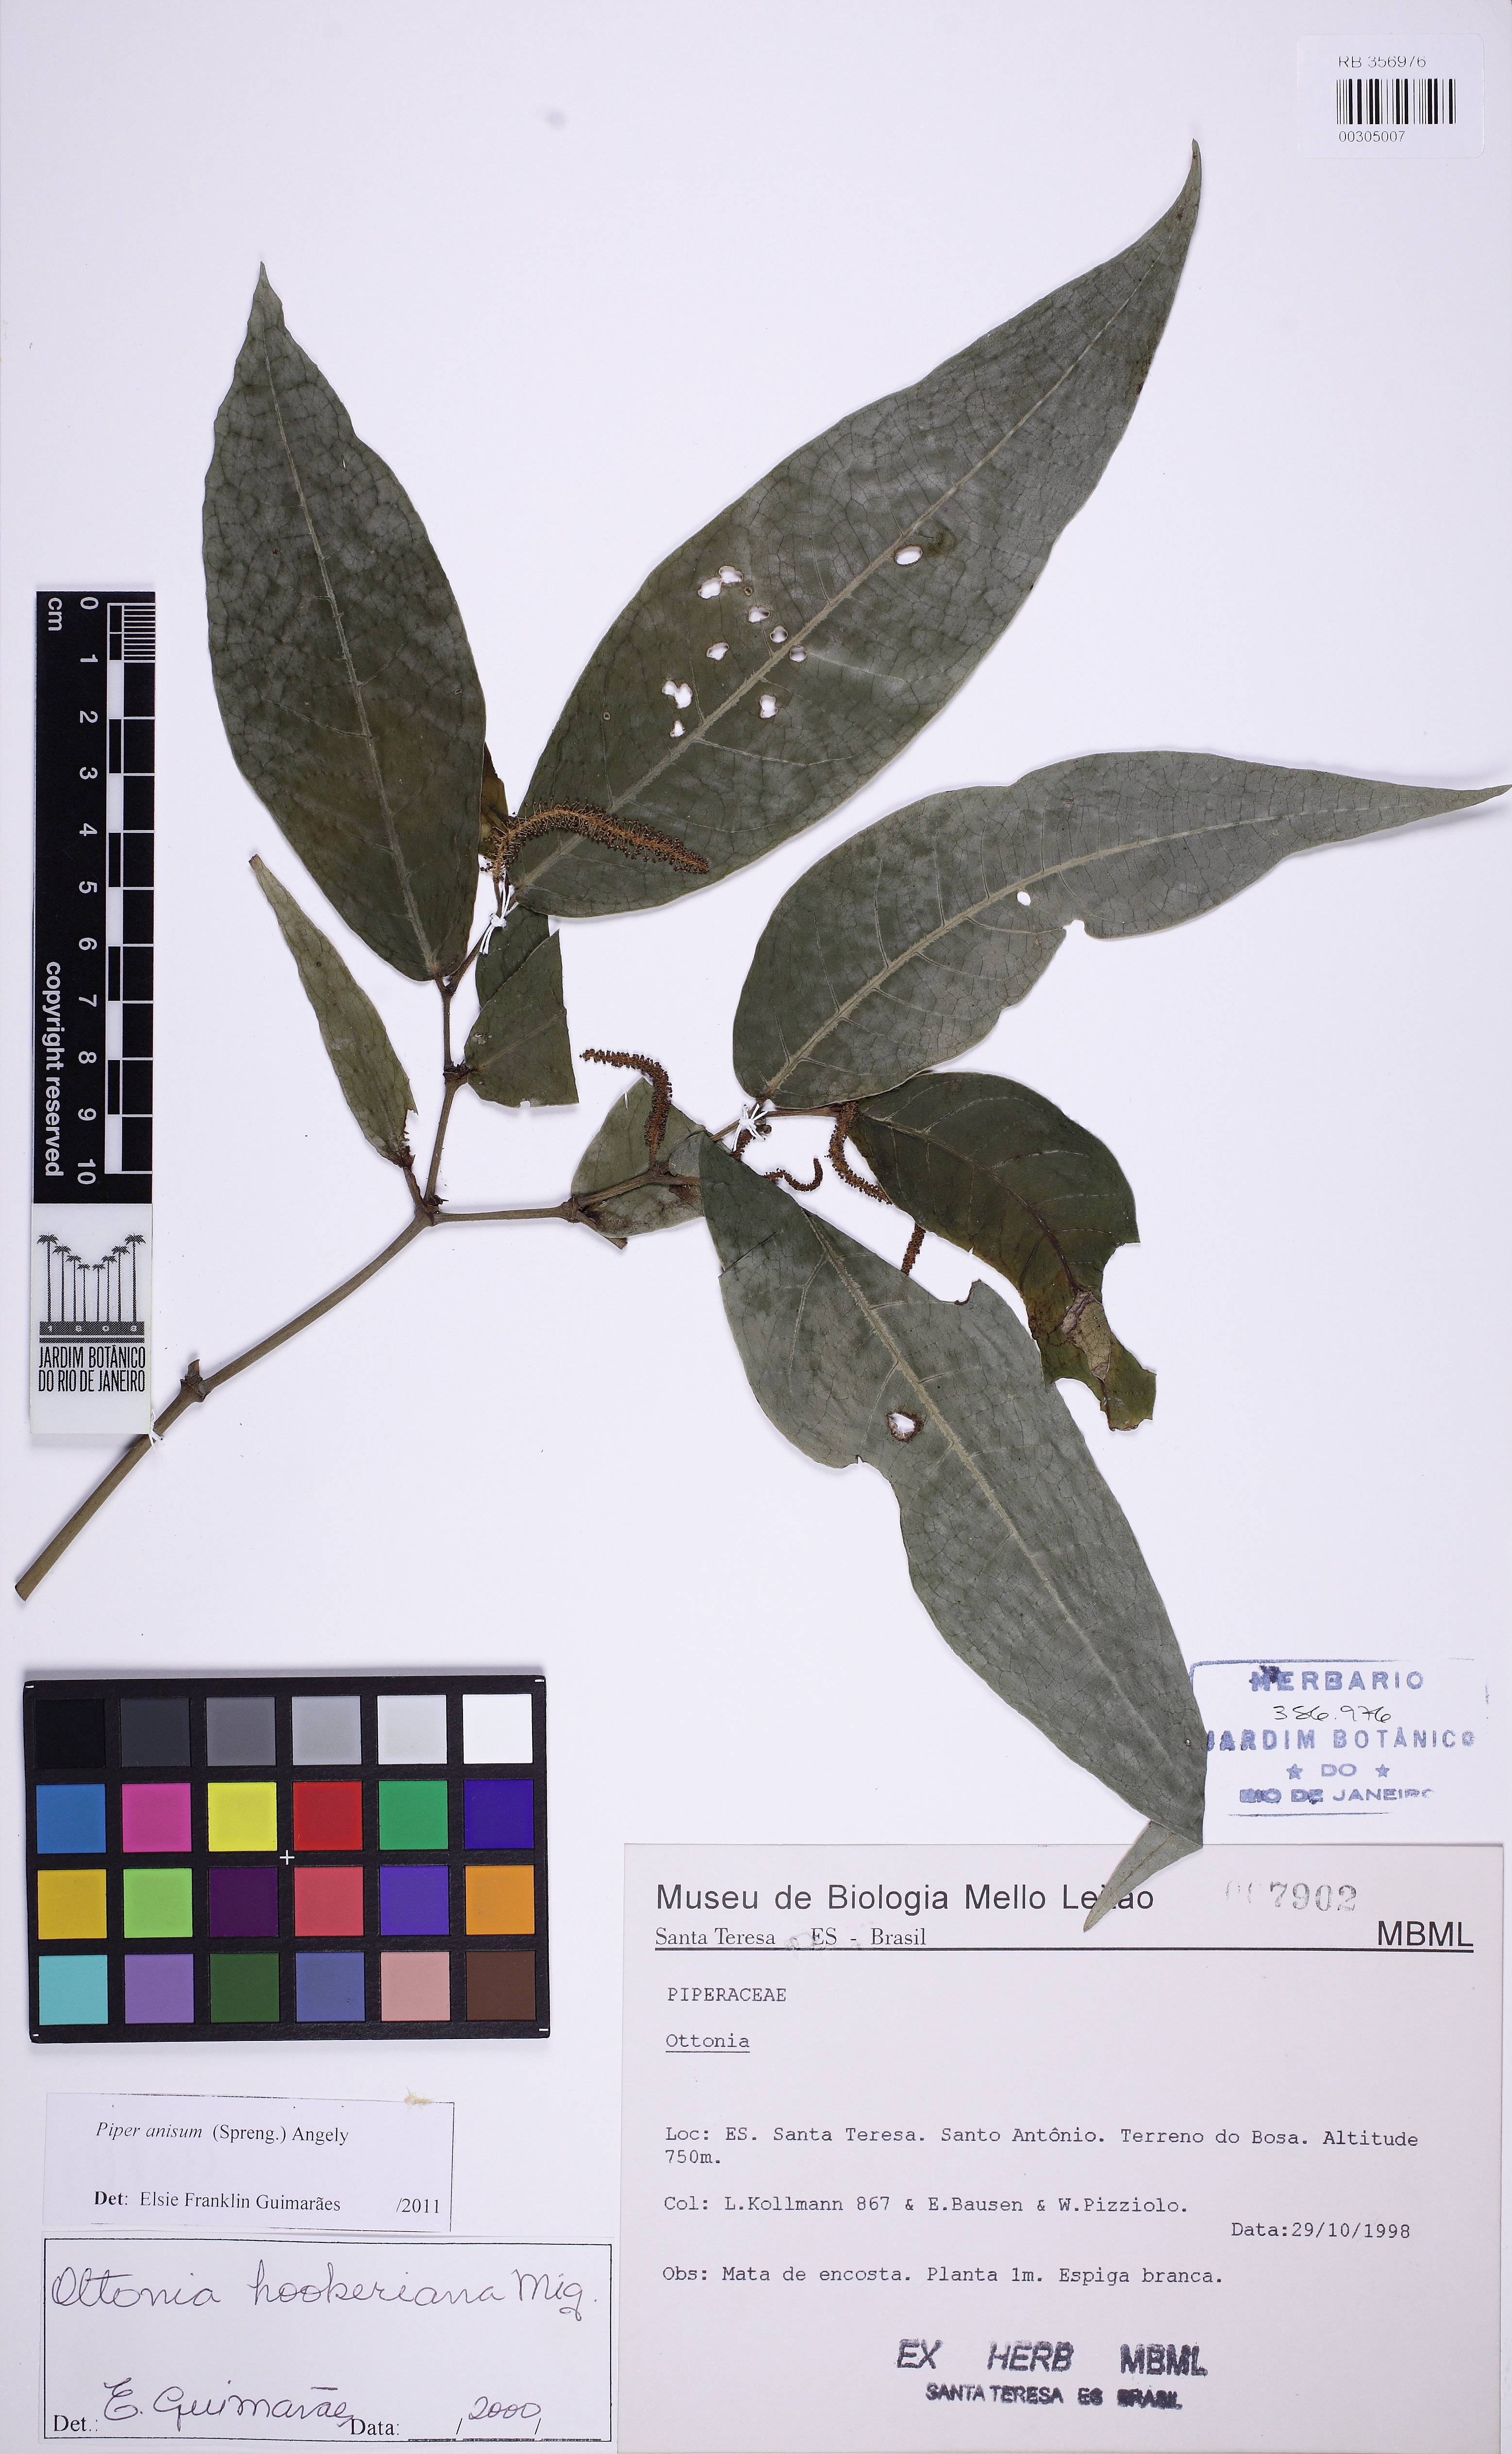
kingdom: Plantae
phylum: Tracheophyta
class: Magnoliopsida
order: Piperales
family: Piperaceae
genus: Piper
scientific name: Piper anisum
